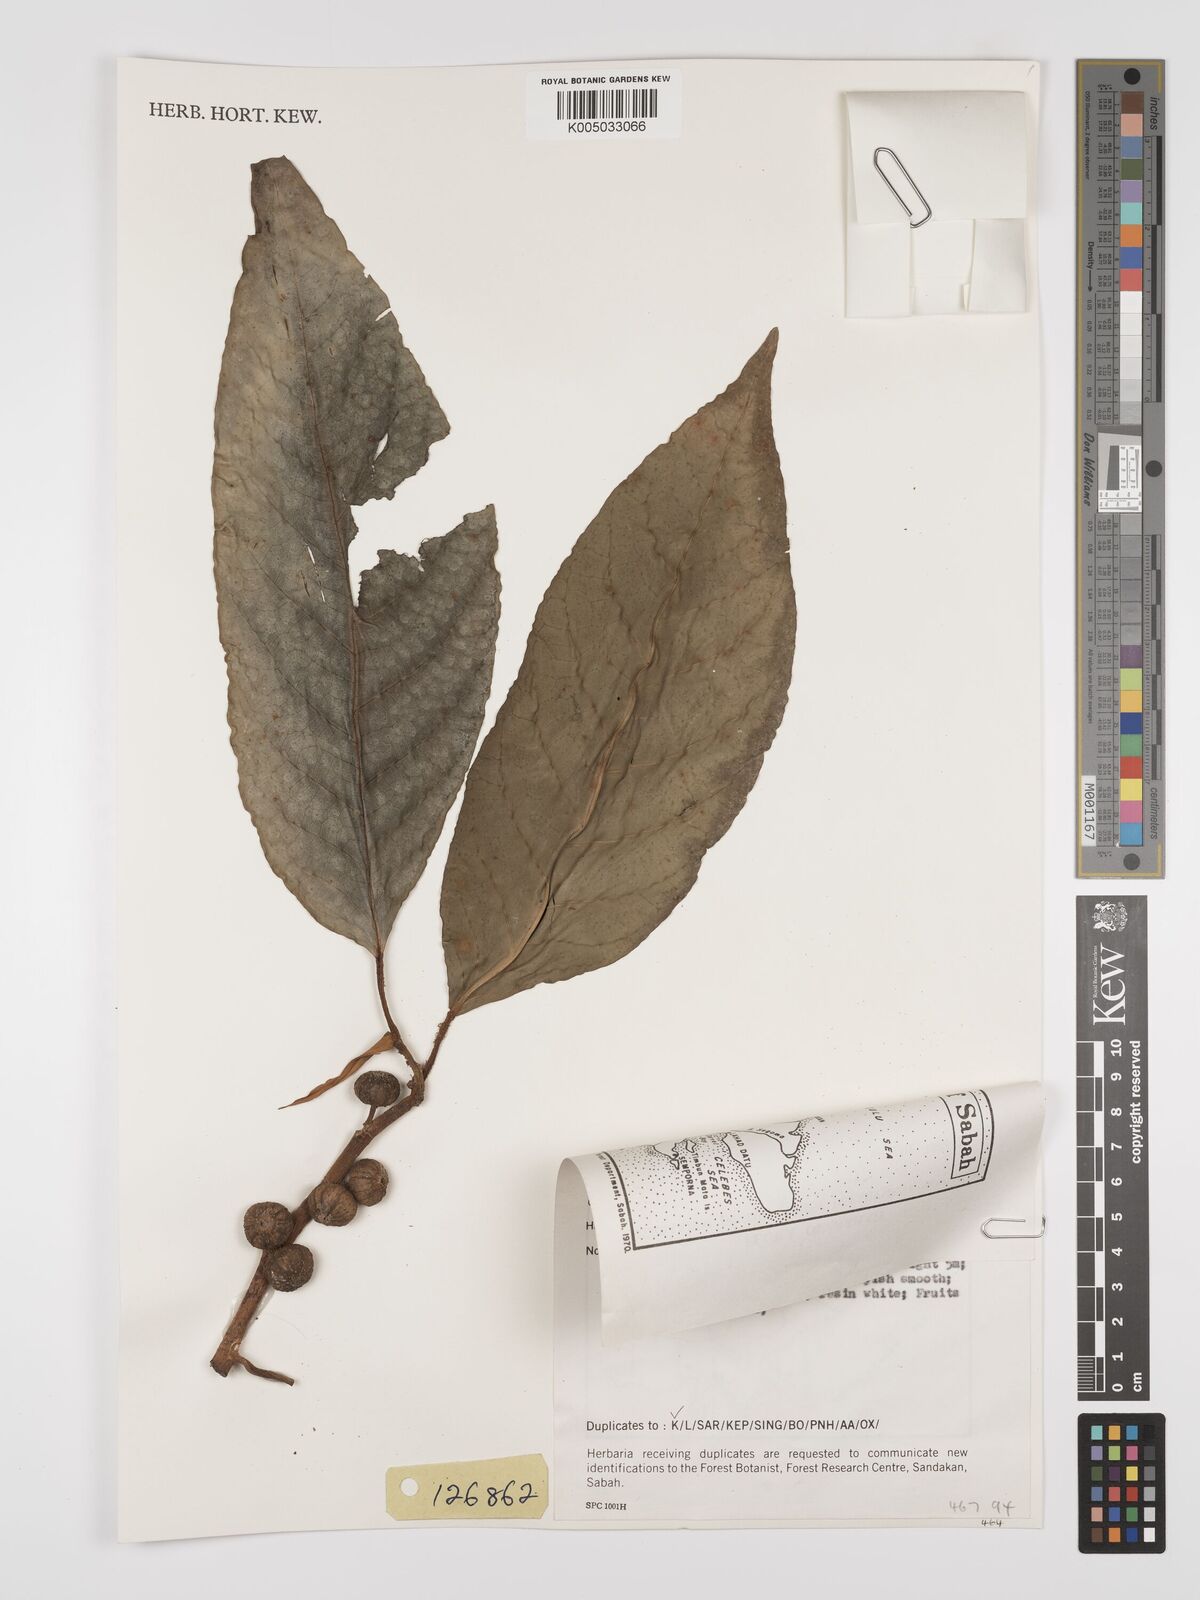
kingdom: Plantae
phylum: Tracheophyta
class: Magnoliopsida
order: Rosales
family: Moraceae
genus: Ficus
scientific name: Ficus septica
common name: Septic fig
